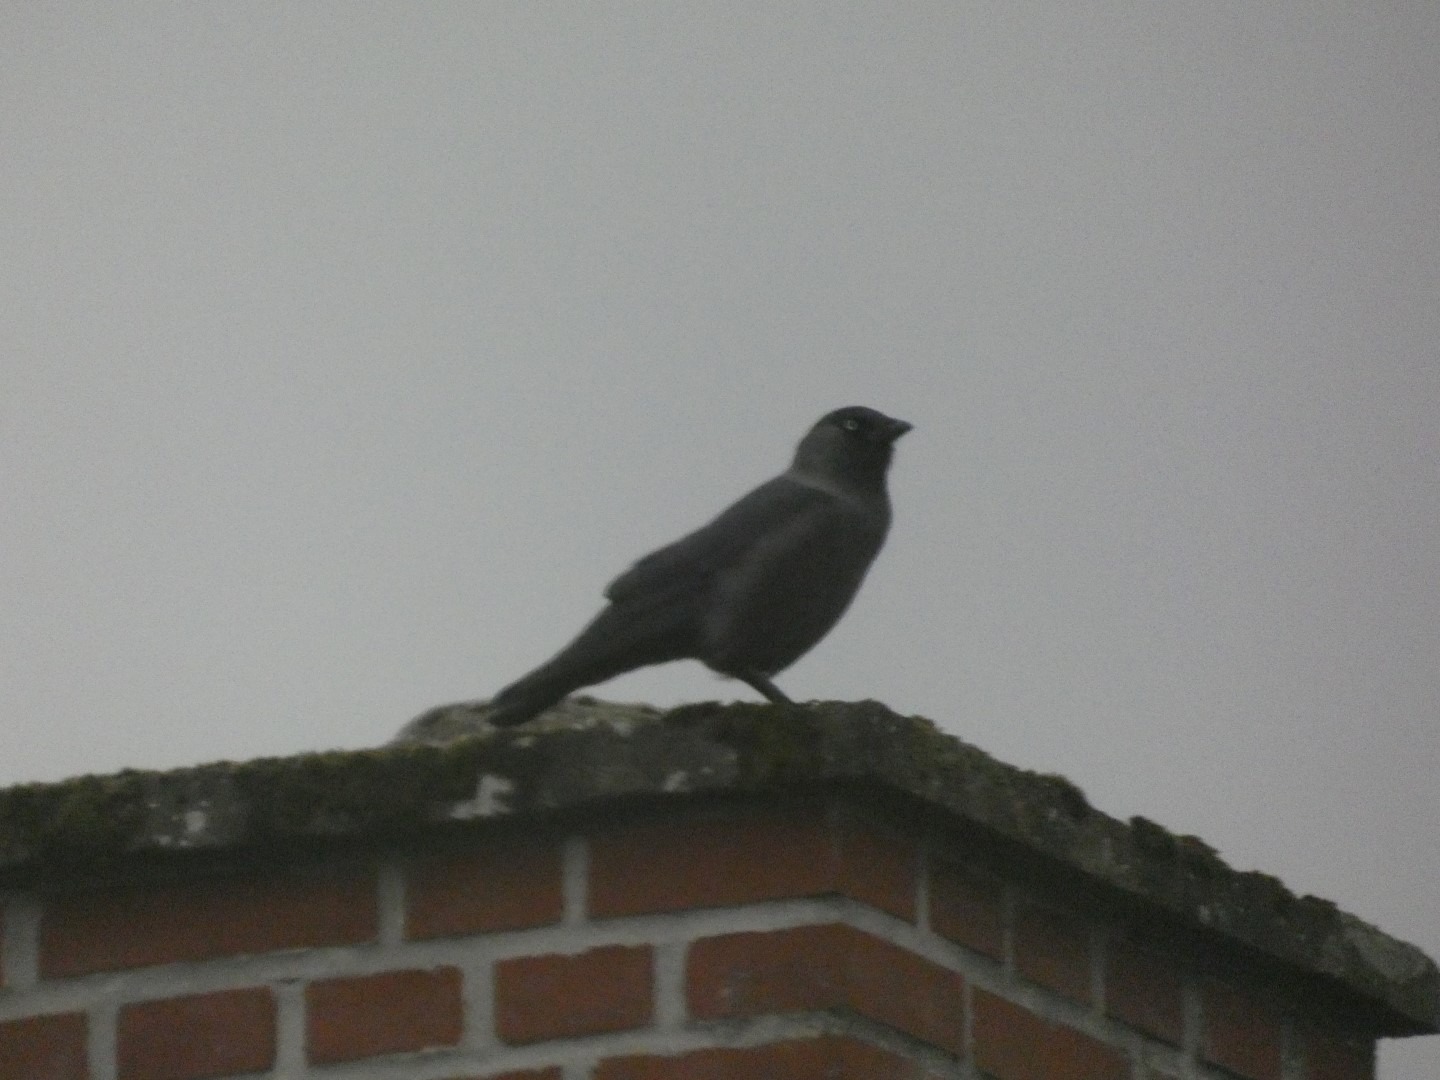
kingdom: Animalia
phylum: Chordata
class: Aves
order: Passeriformes
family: Corvidae
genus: Coloeus
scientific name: Coloeus monedula
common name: Allike
